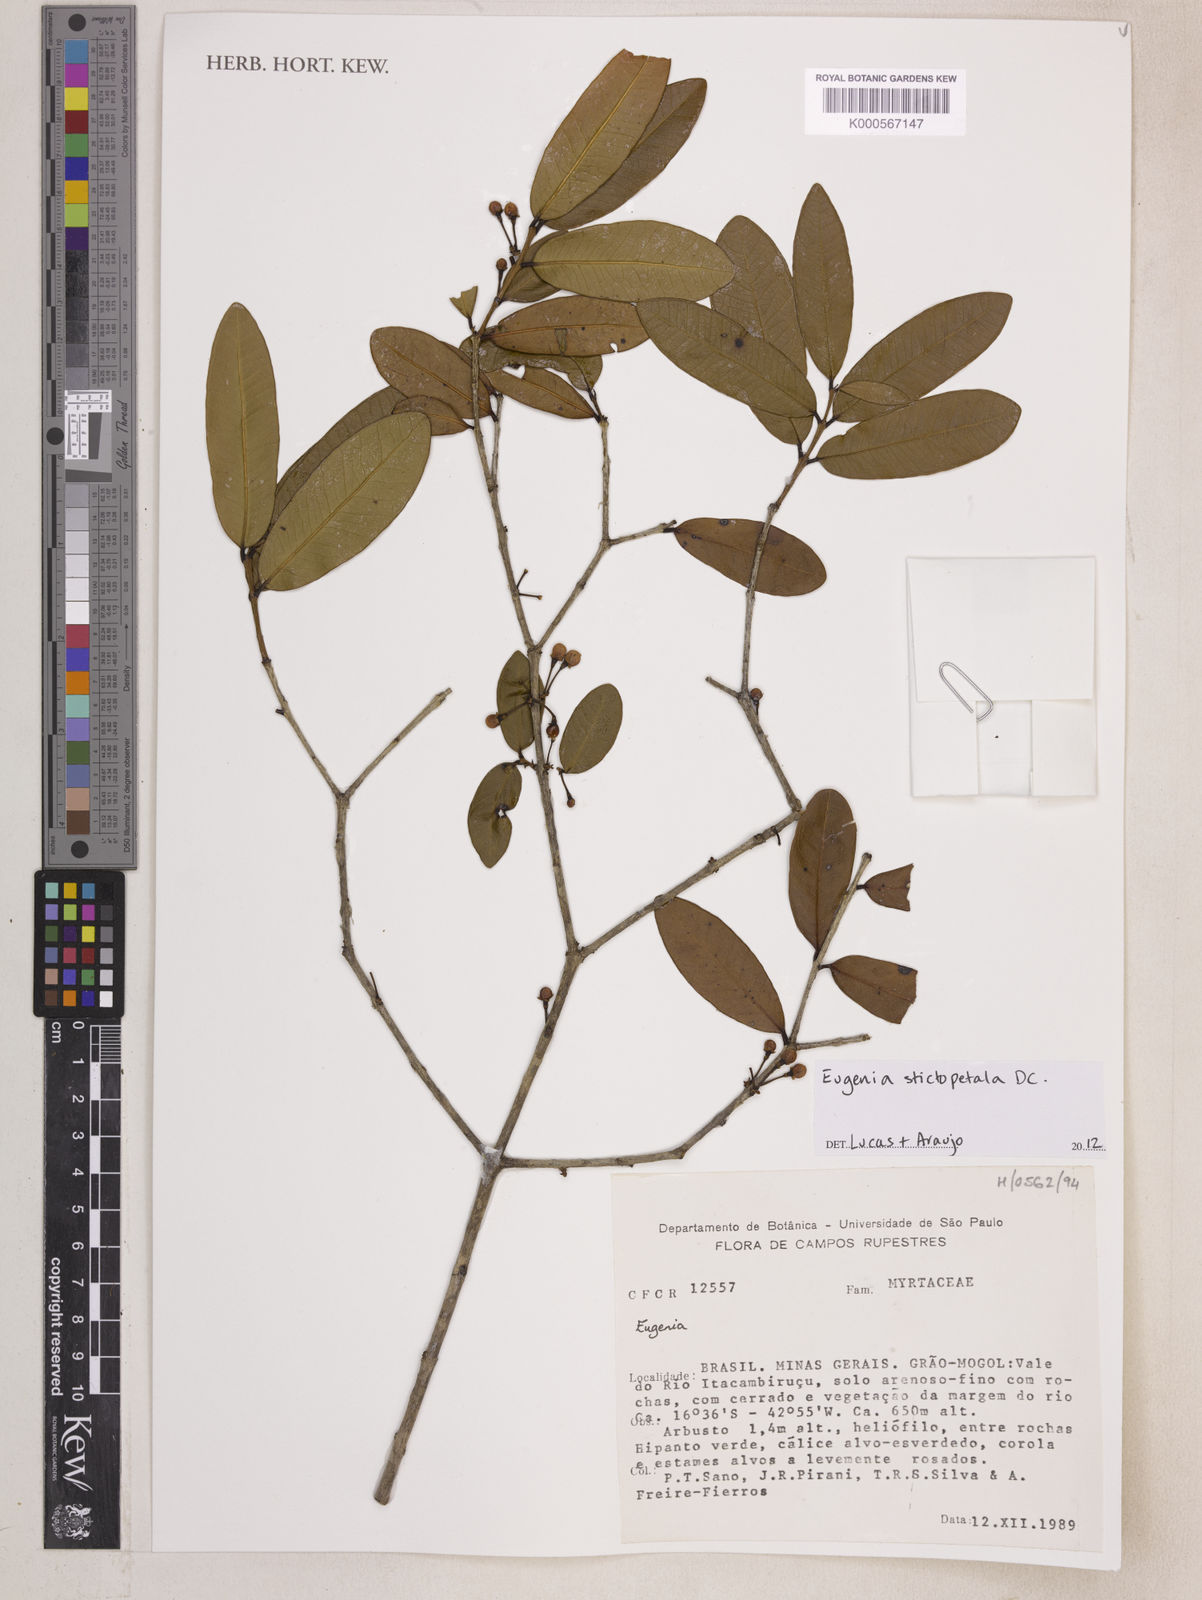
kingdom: Plantae
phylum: Tracheophyta
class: Magnoliopsida
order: Myrtales
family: Myrtaceae
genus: Eugenia
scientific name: Eugenia
